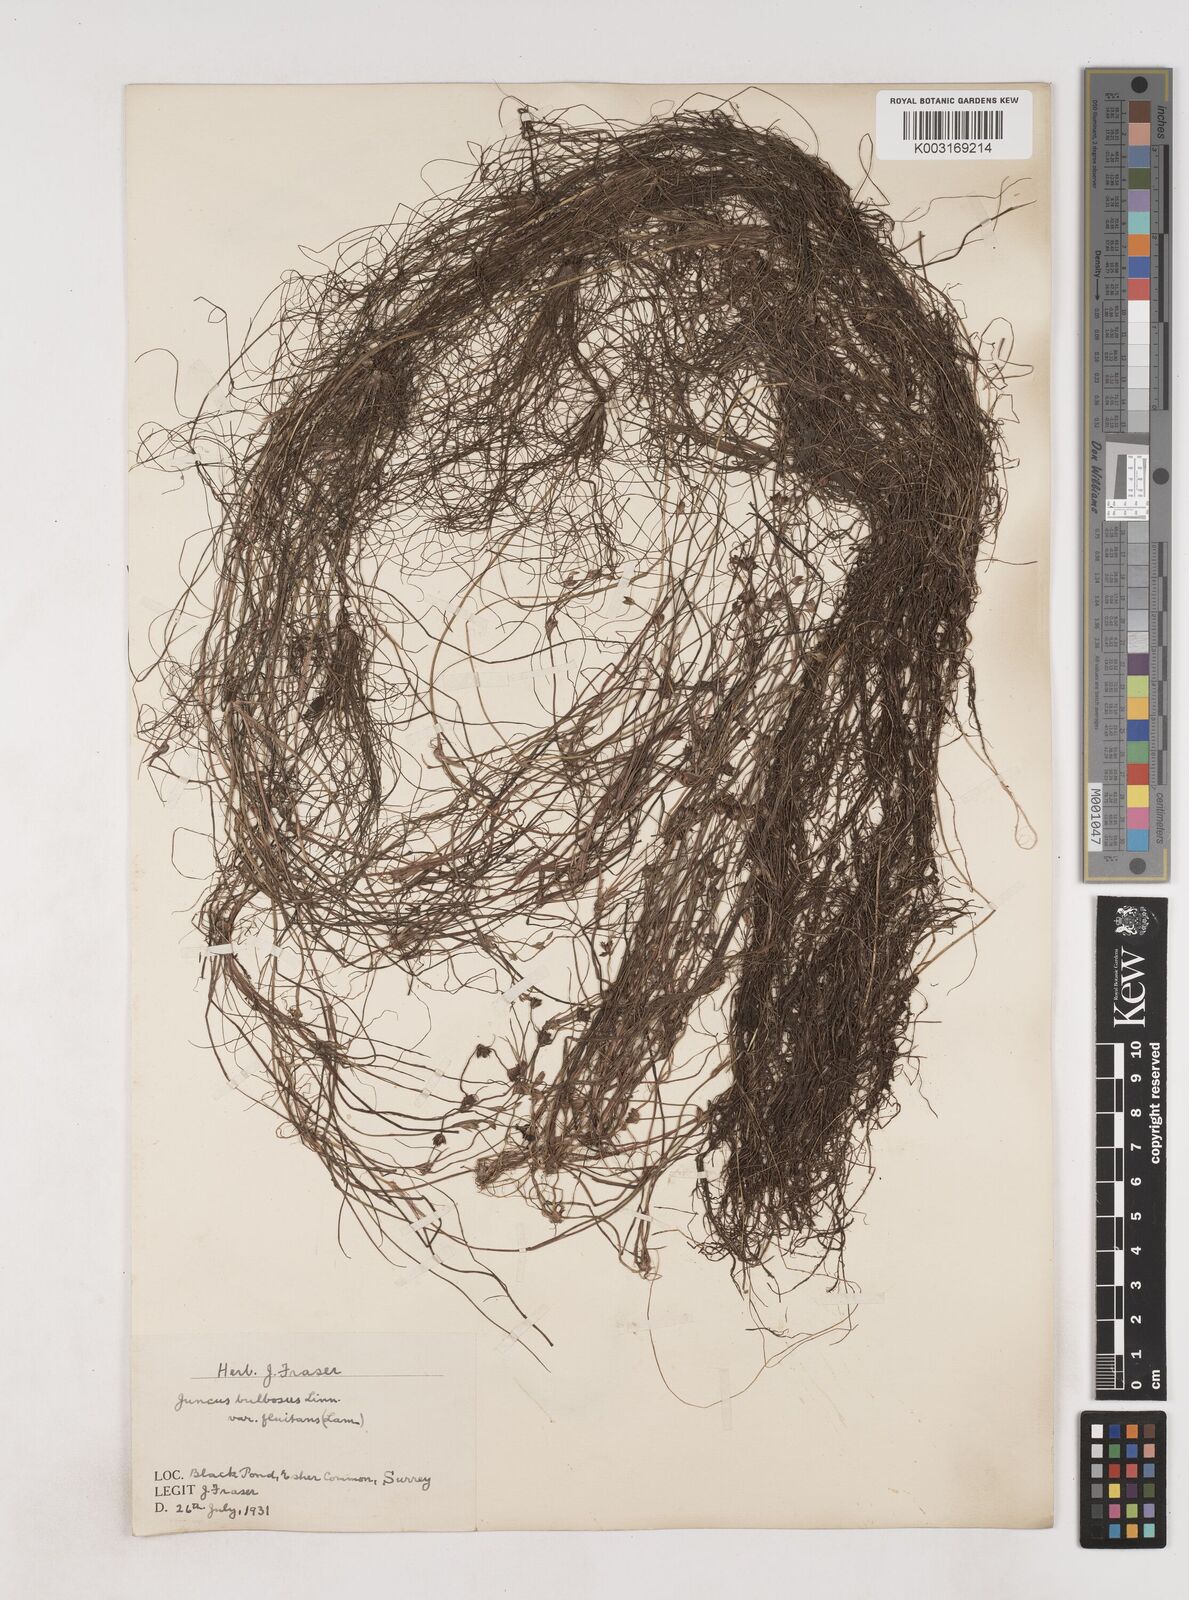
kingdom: Plantae
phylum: Tracheophyta
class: Liliopsida
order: Poales
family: Juncaceae
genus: Juncus
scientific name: Juncus bulbosus
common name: Bulbous rush
